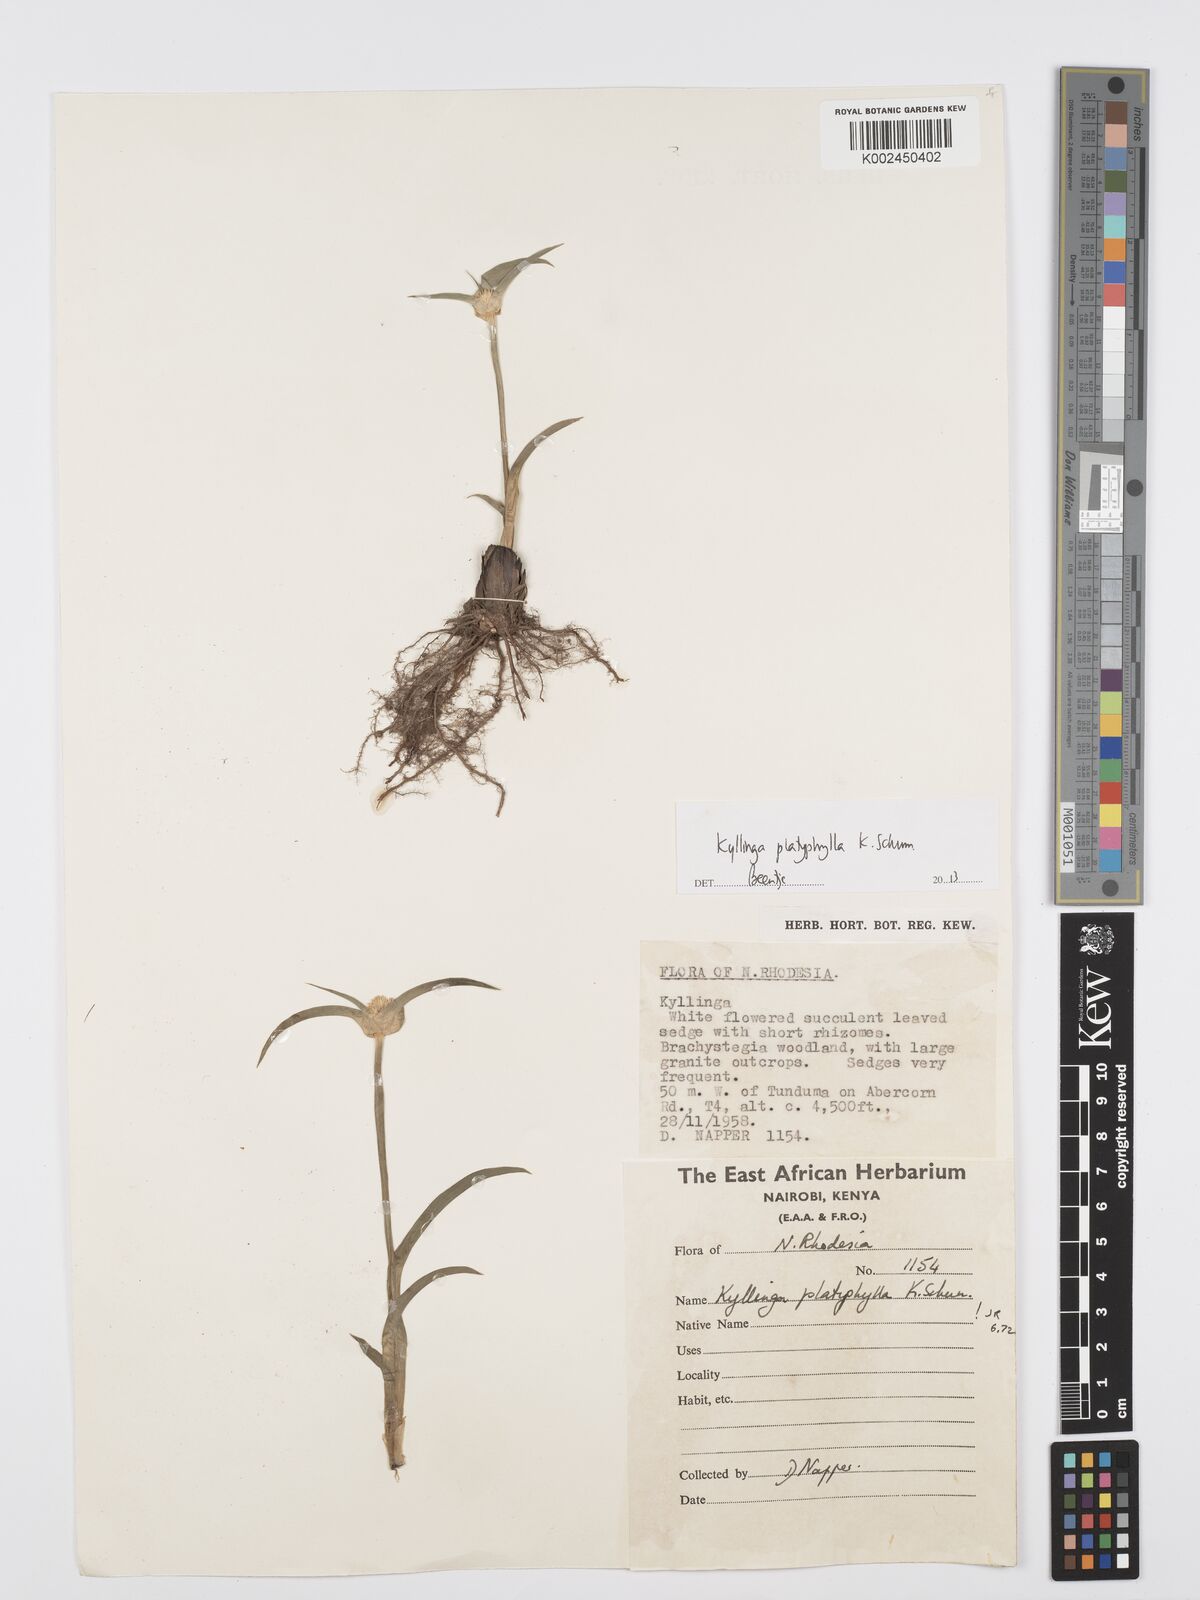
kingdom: Plantae
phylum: Tracheophyta
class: Liliopsida
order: Poales
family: Cyperaceae
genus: Cyperus
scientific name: Cyperus
